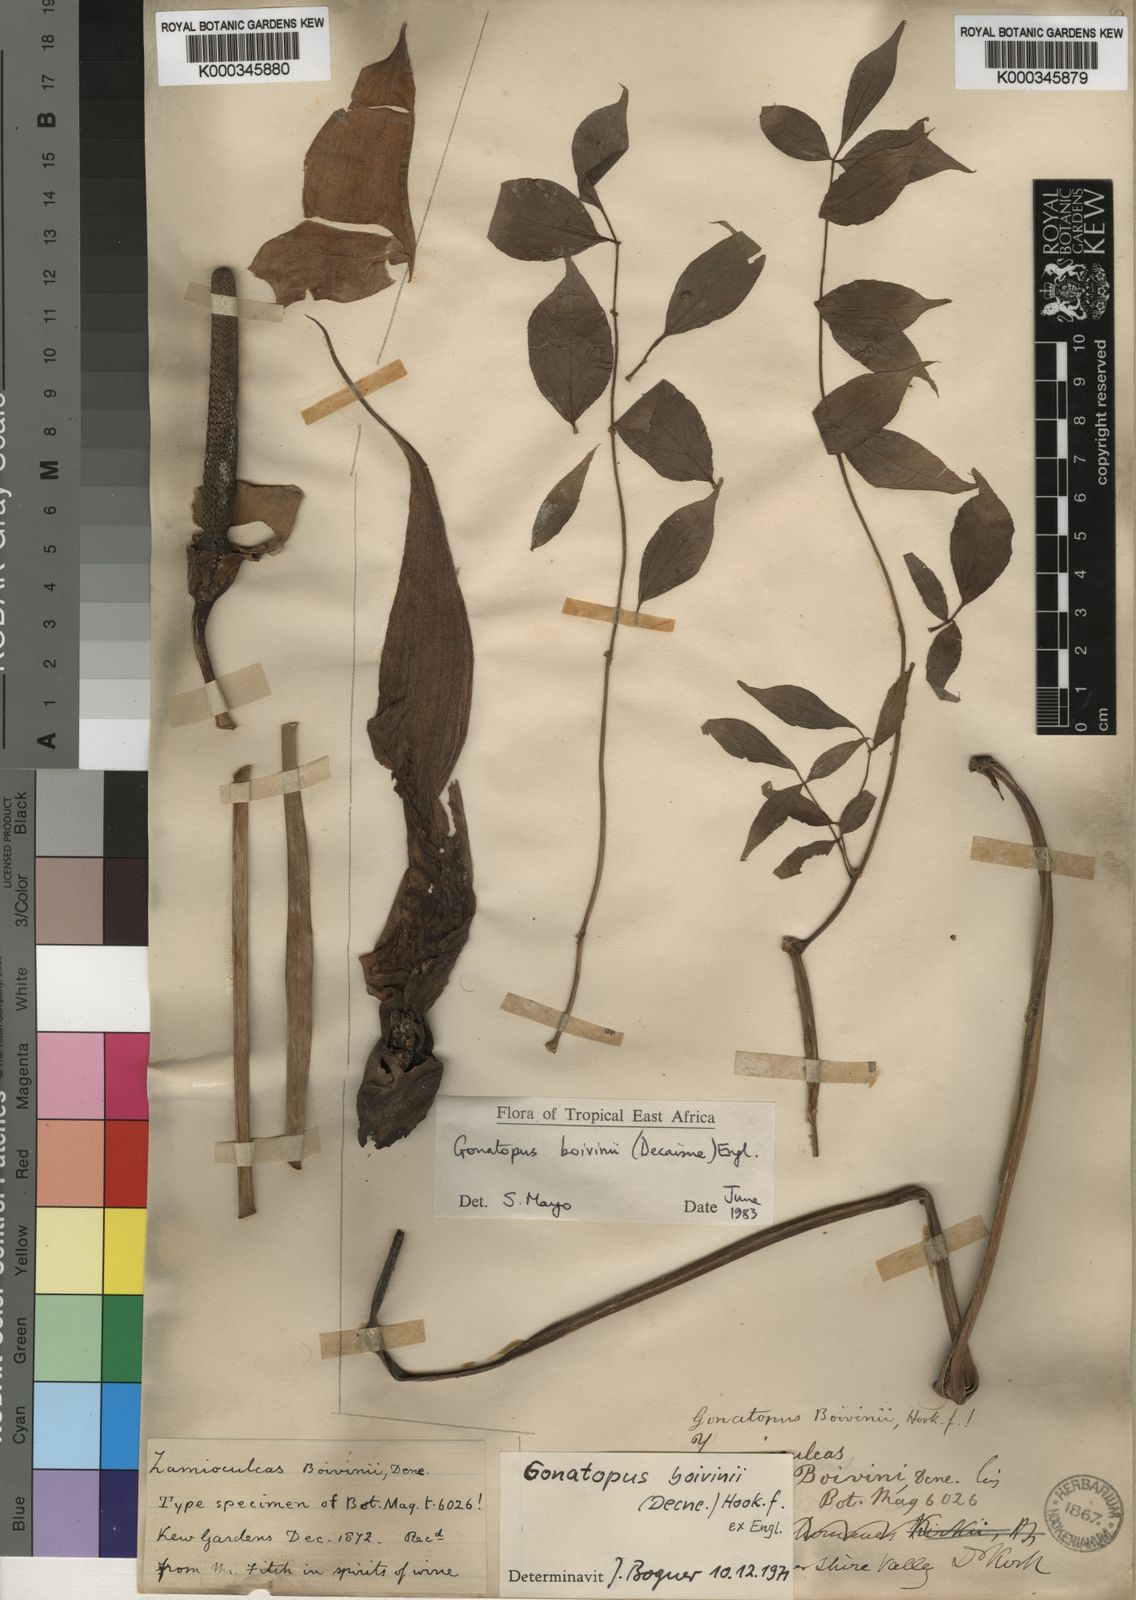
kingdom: Plantae
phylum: Tracheophyta
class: Liliopsida
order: Alismatales
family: Araceae
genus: Gonatopus
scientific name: Gonatopus boivinii
